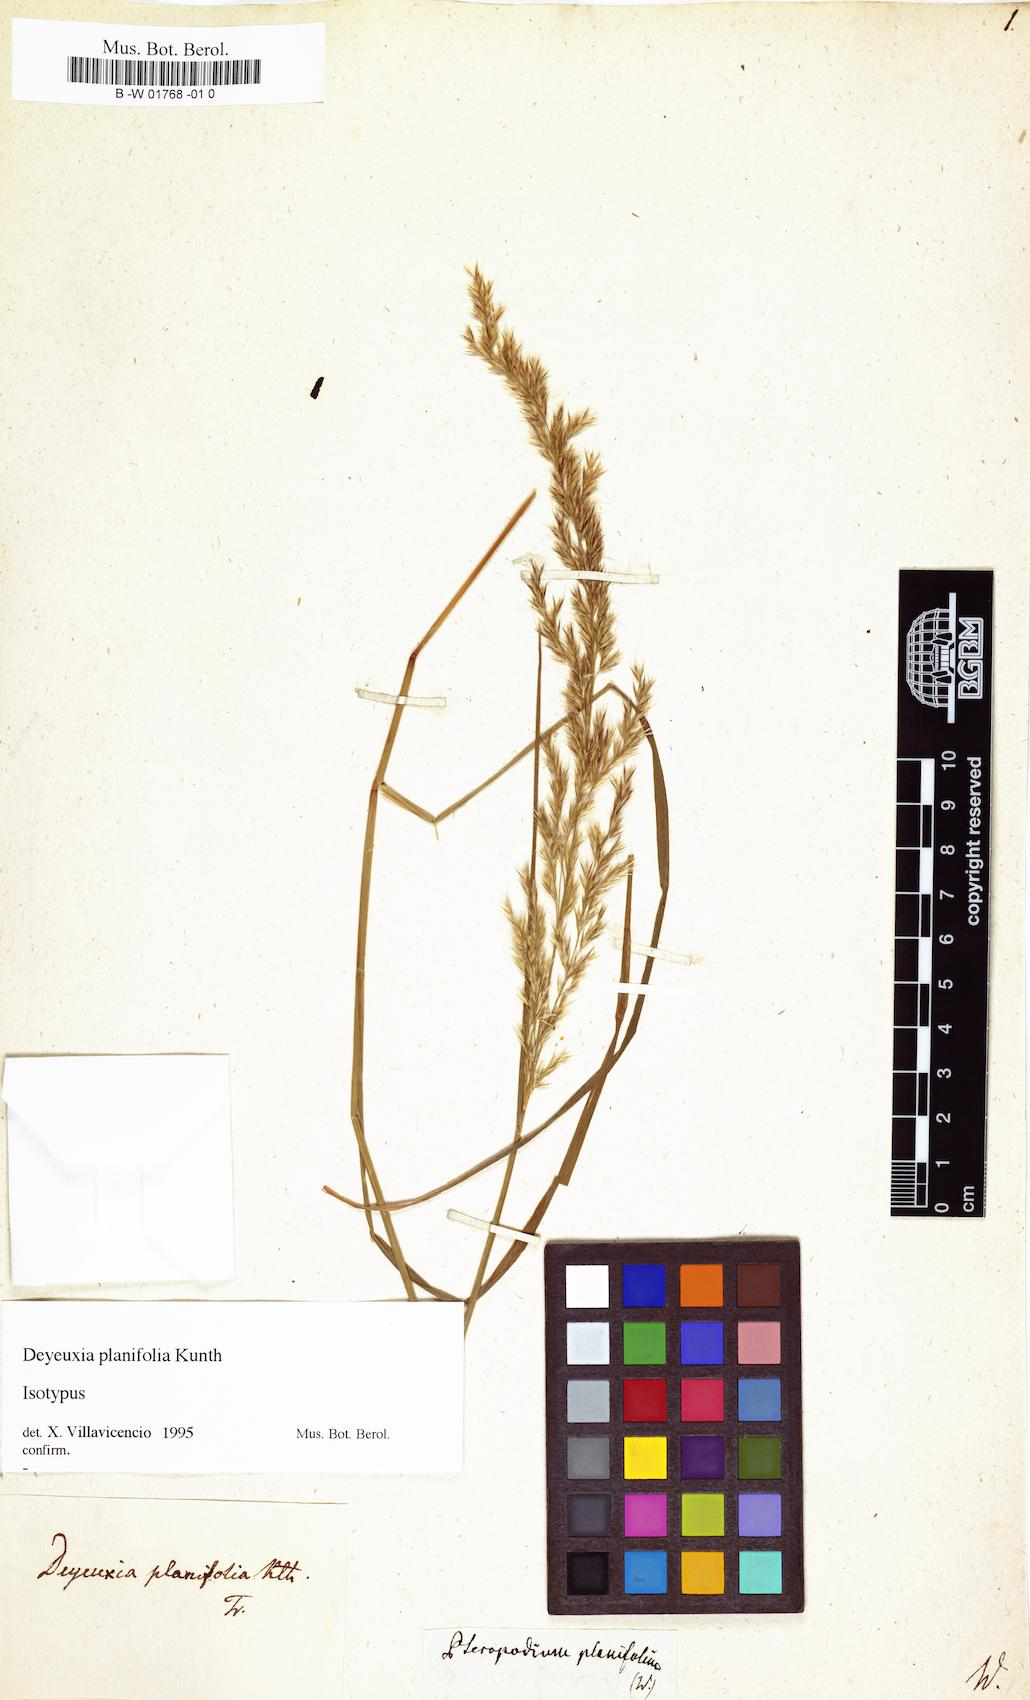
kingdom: Plantae
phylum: Tracheophyta
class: Liliopsida
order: Poales
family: Poaceae
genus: Calamagrostis
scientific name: Calamagrostis
